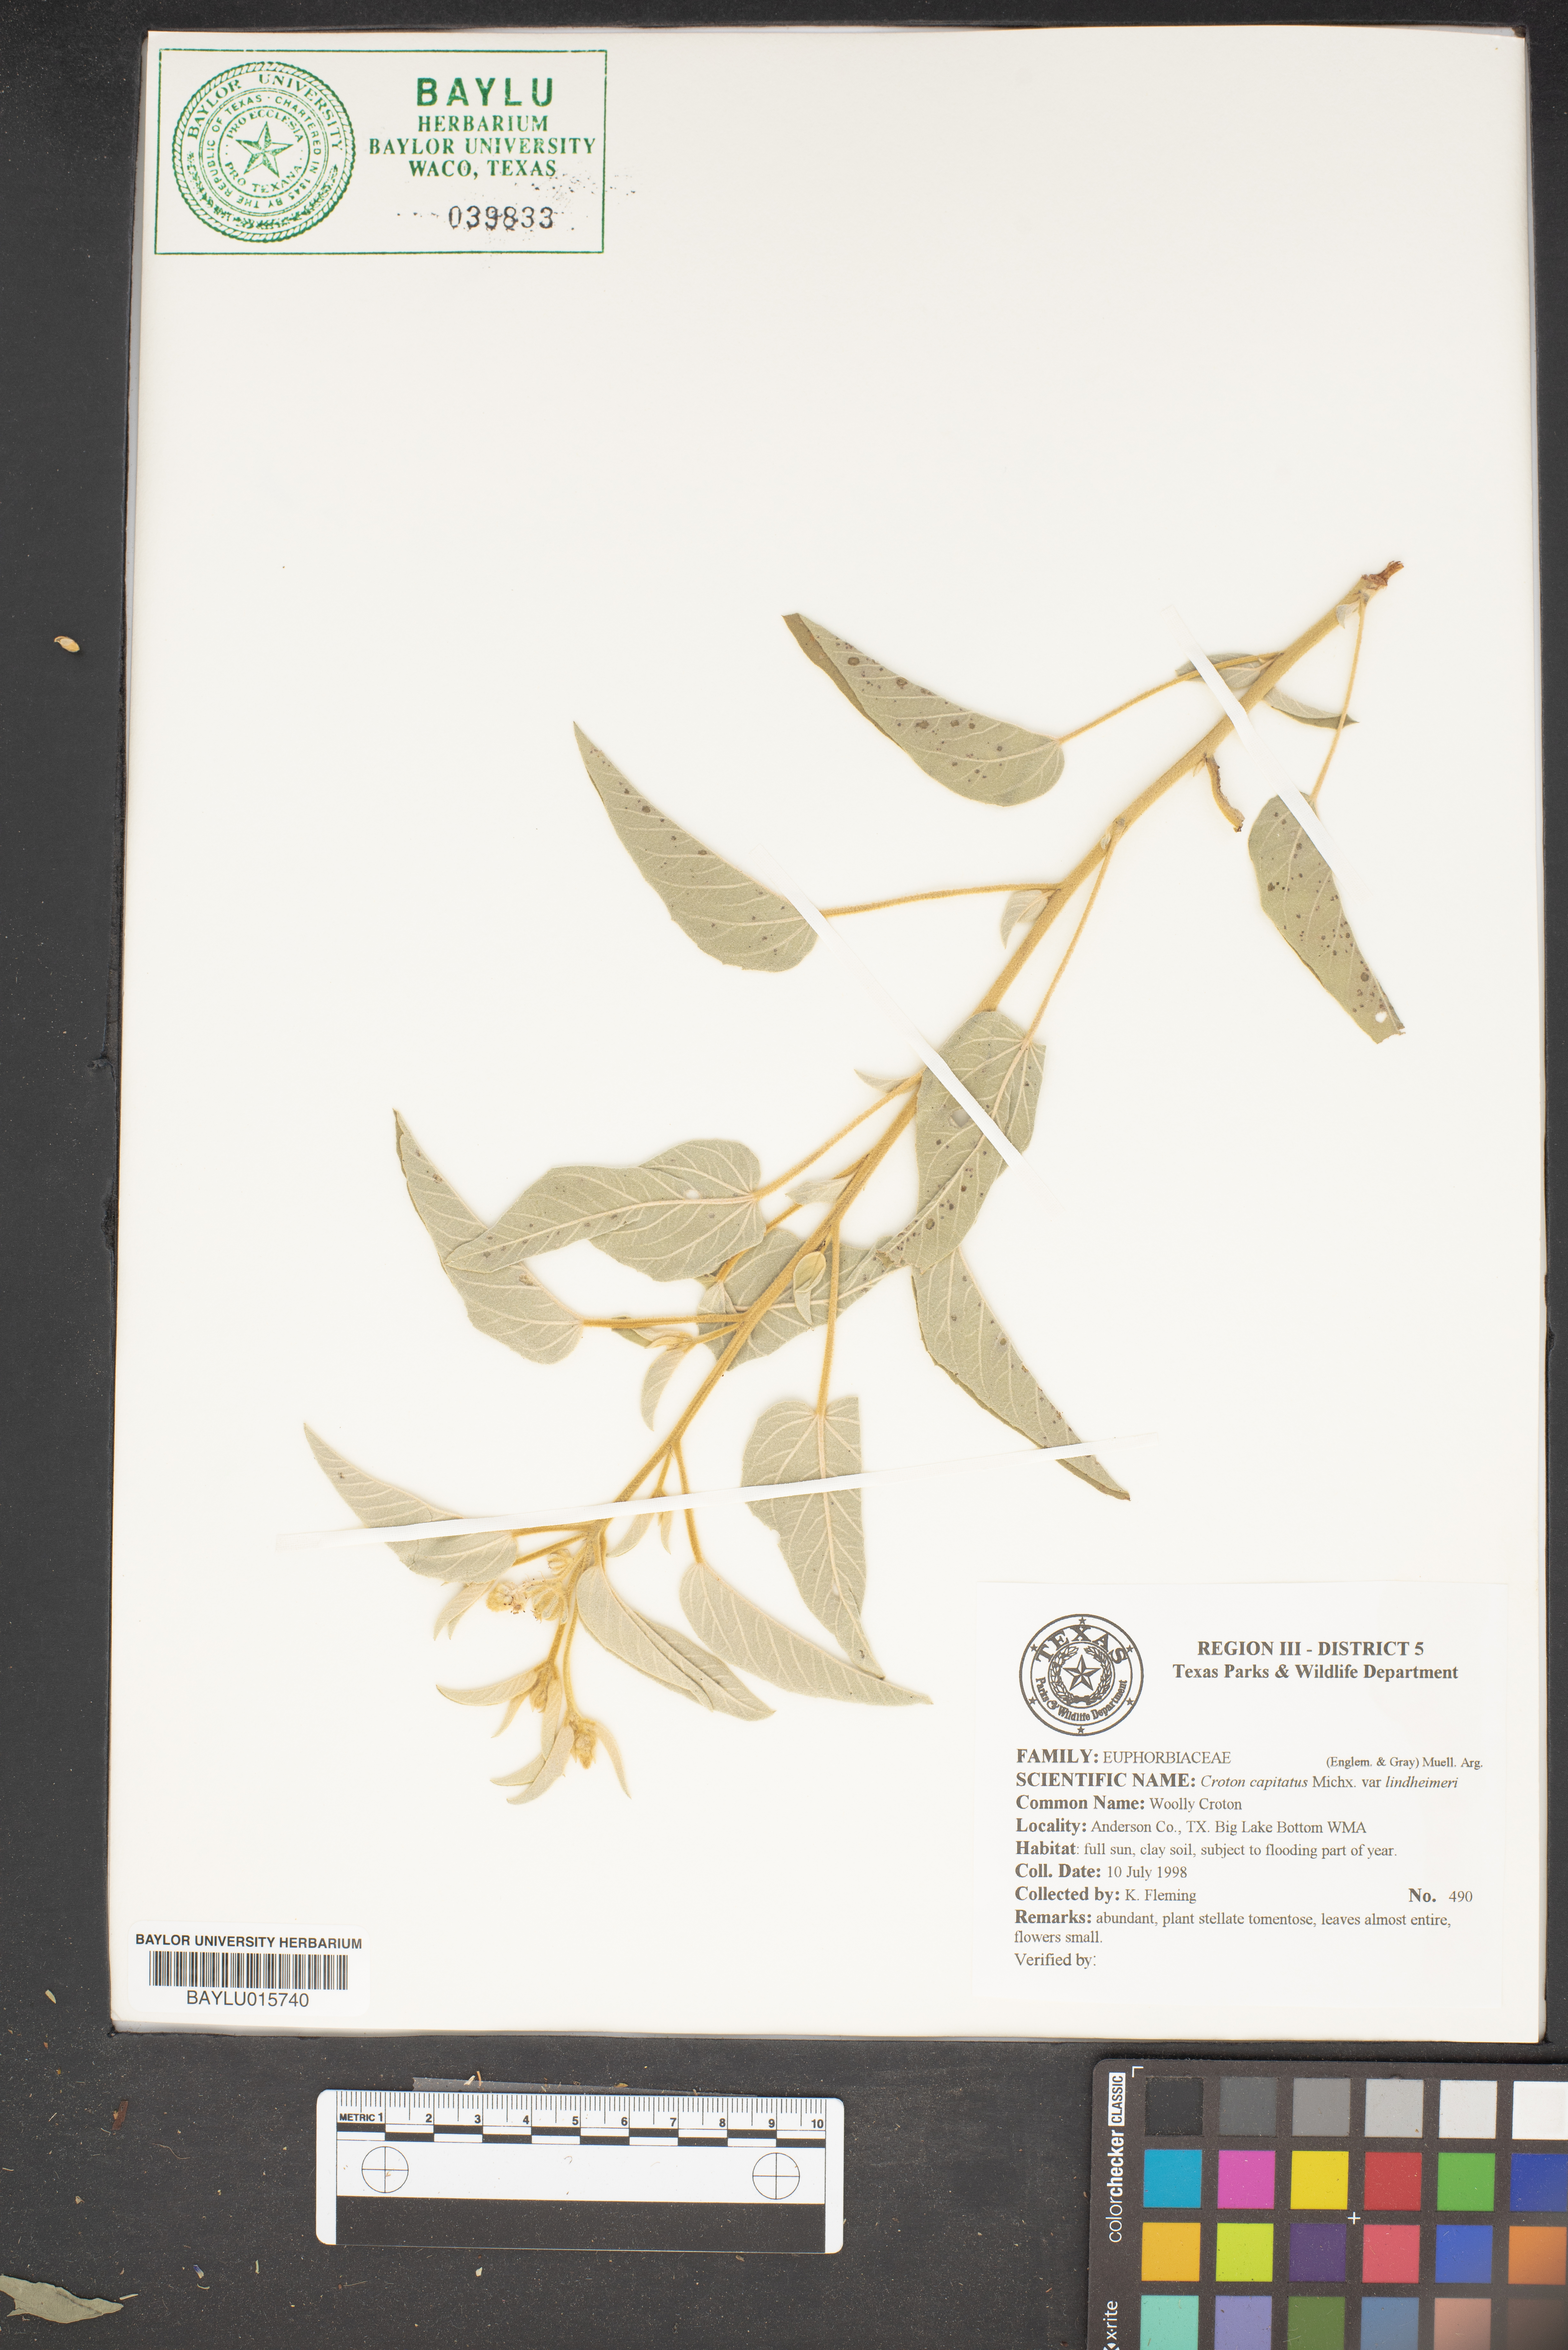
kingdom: Plantae
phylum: Tracheophyta
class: Magnoliopsida
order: Malpighiales
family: Euphorbiaceae
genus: Croton
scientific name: Croton lindheimeri
